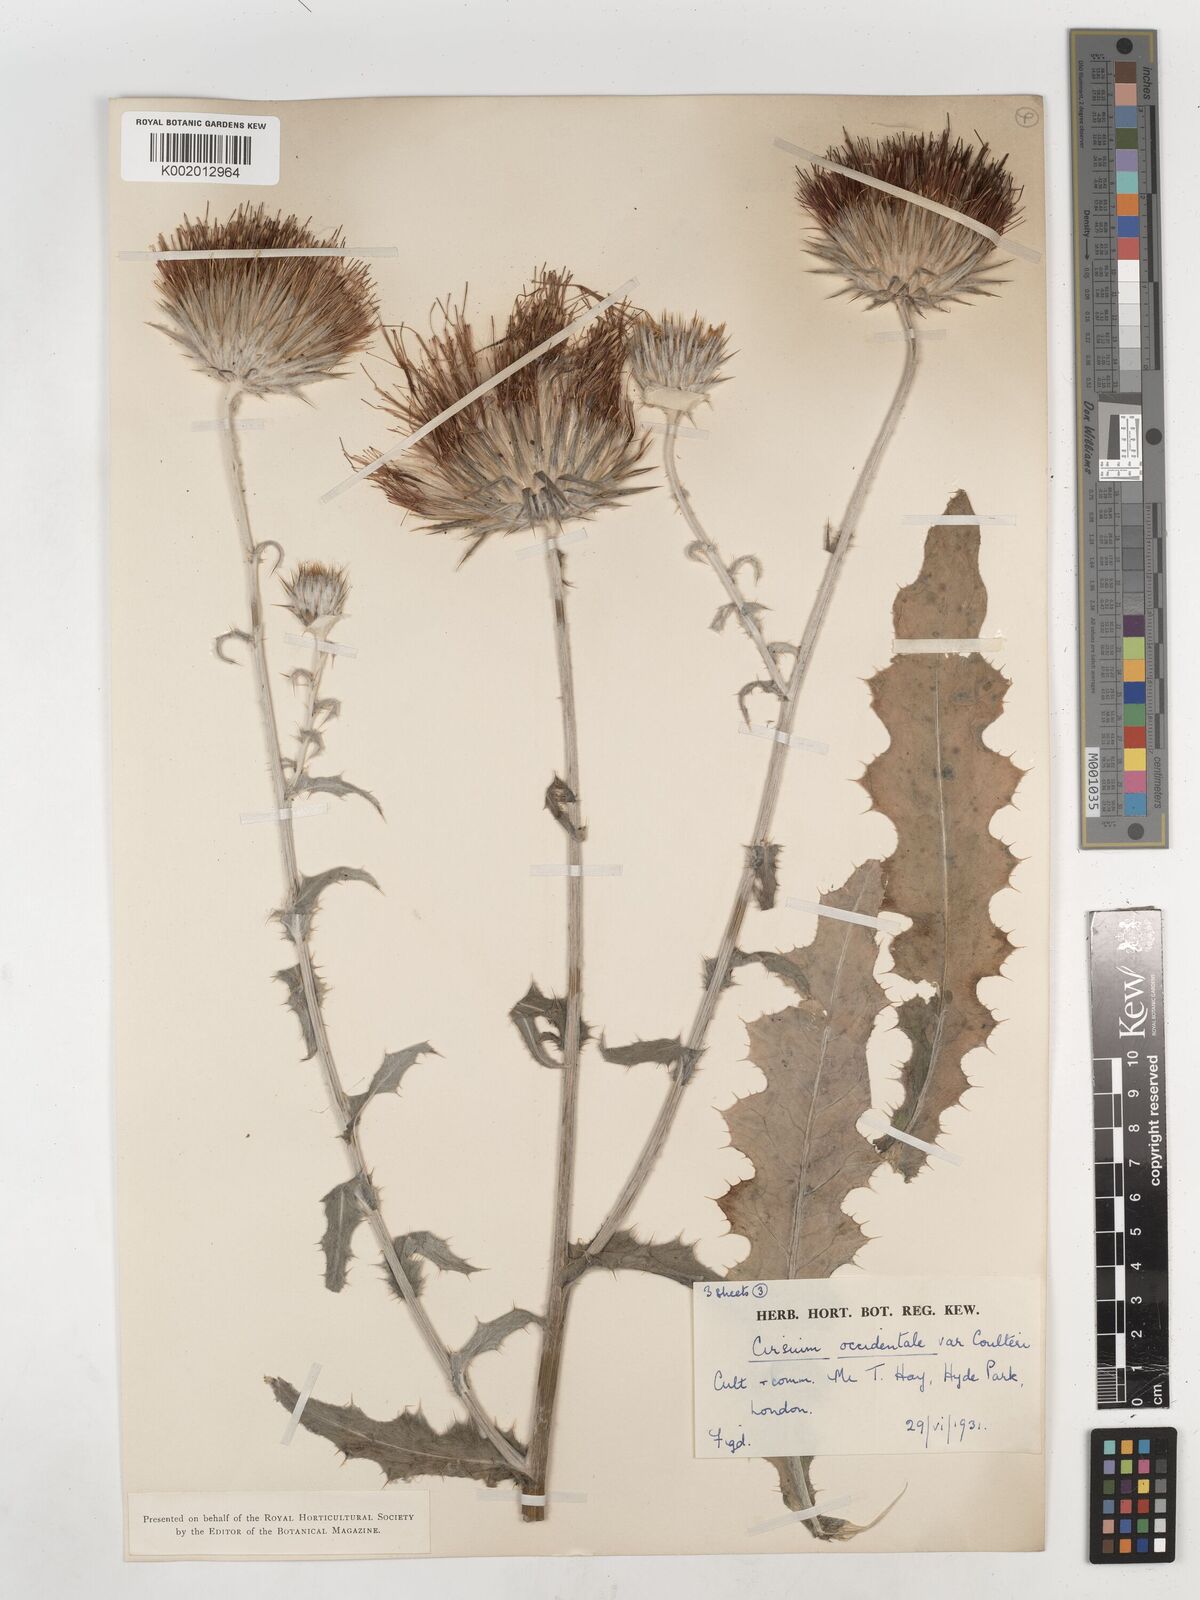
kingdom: Plantae
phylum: Tracheophyta
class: Magnoliopsida
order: Asterales
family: Asteraceae
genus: Cirsium
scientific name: Cirsium occidentale
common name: Western thistle
